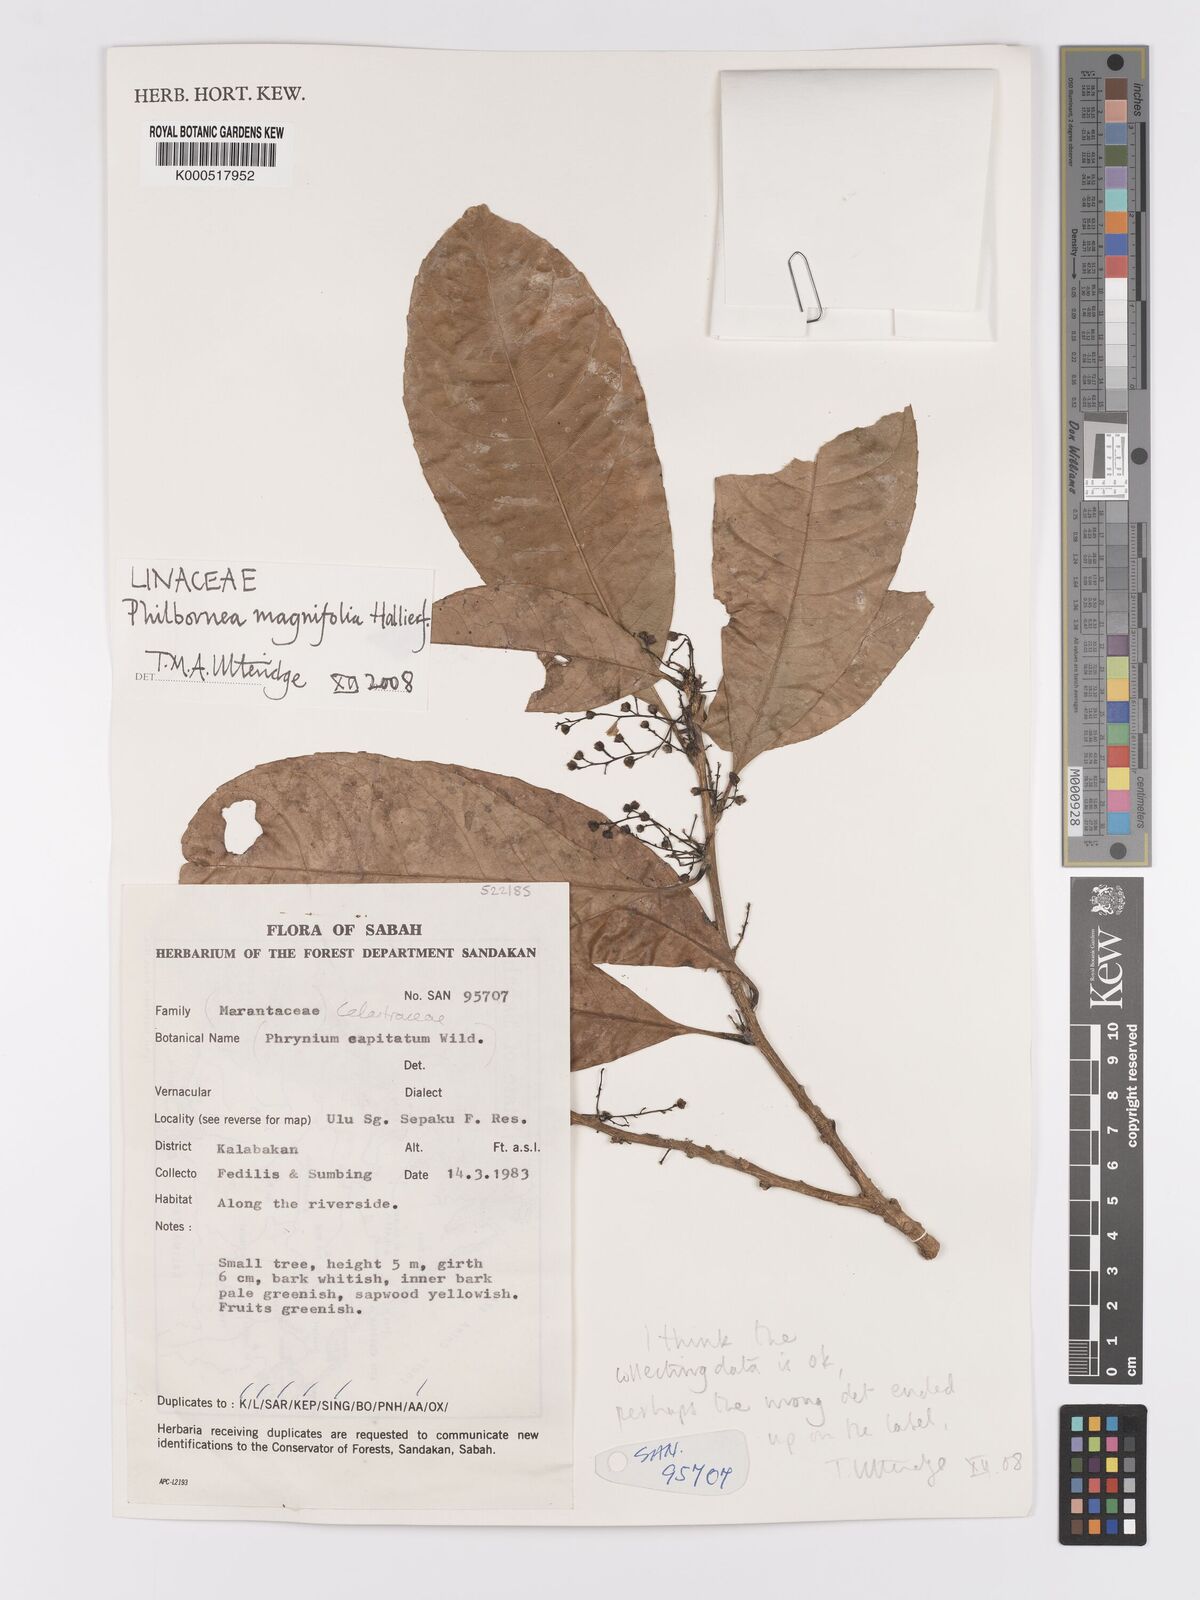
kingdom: Plantae
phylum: Tracheophyta
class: Magnoliopsida
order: Malpighiales
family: Linaceae
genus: Philbornea
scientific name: Philbornea magnifolia
